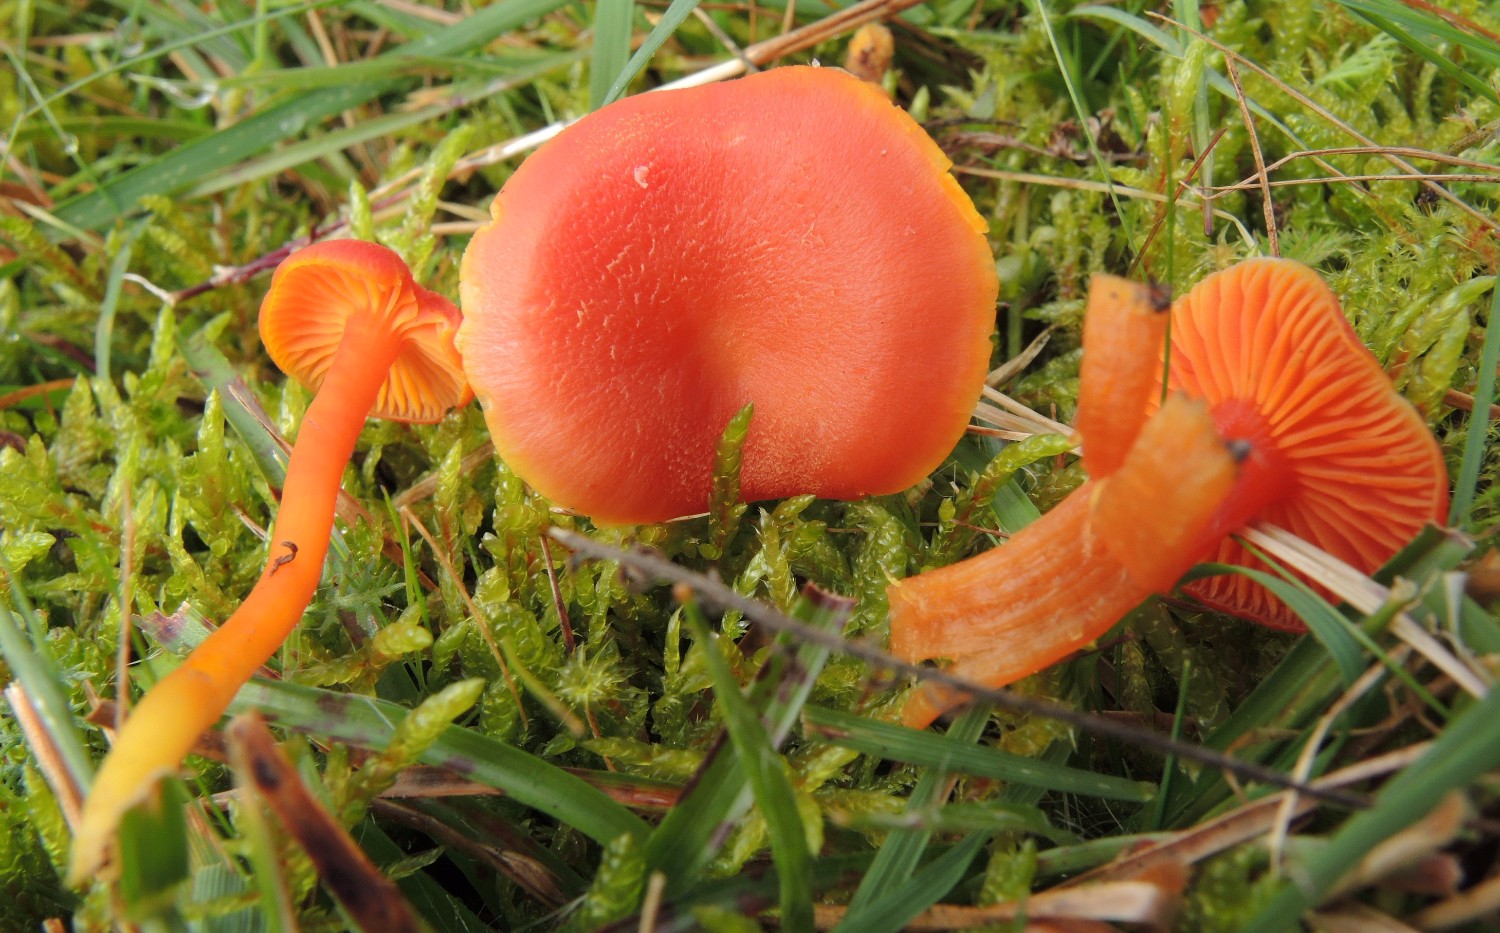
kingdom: Fungi
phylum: Basidiomycota
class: Agaricomycetes
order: Agaricales
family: Hygrophoraceae
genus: Hygrocybe
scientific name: Hygrocybe miniata
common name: mønje-vokshat
